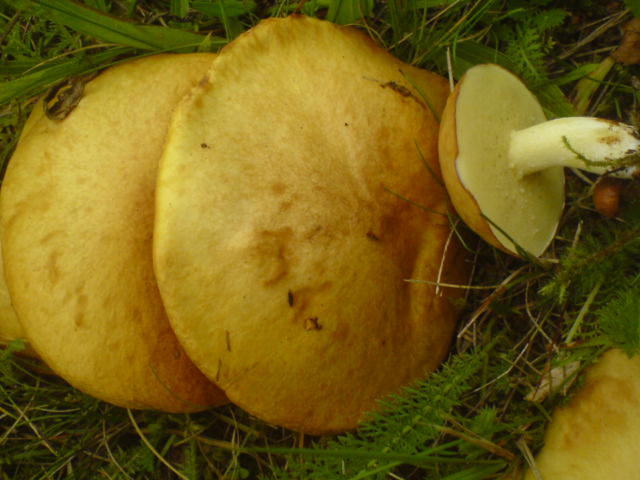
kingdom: Fungi
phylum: Basidiomycota
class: Agaricomycetes
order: Boletales
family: Suillaceae
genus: Suillus
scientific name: Suillus granulatus
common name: kornet slimrørhat
